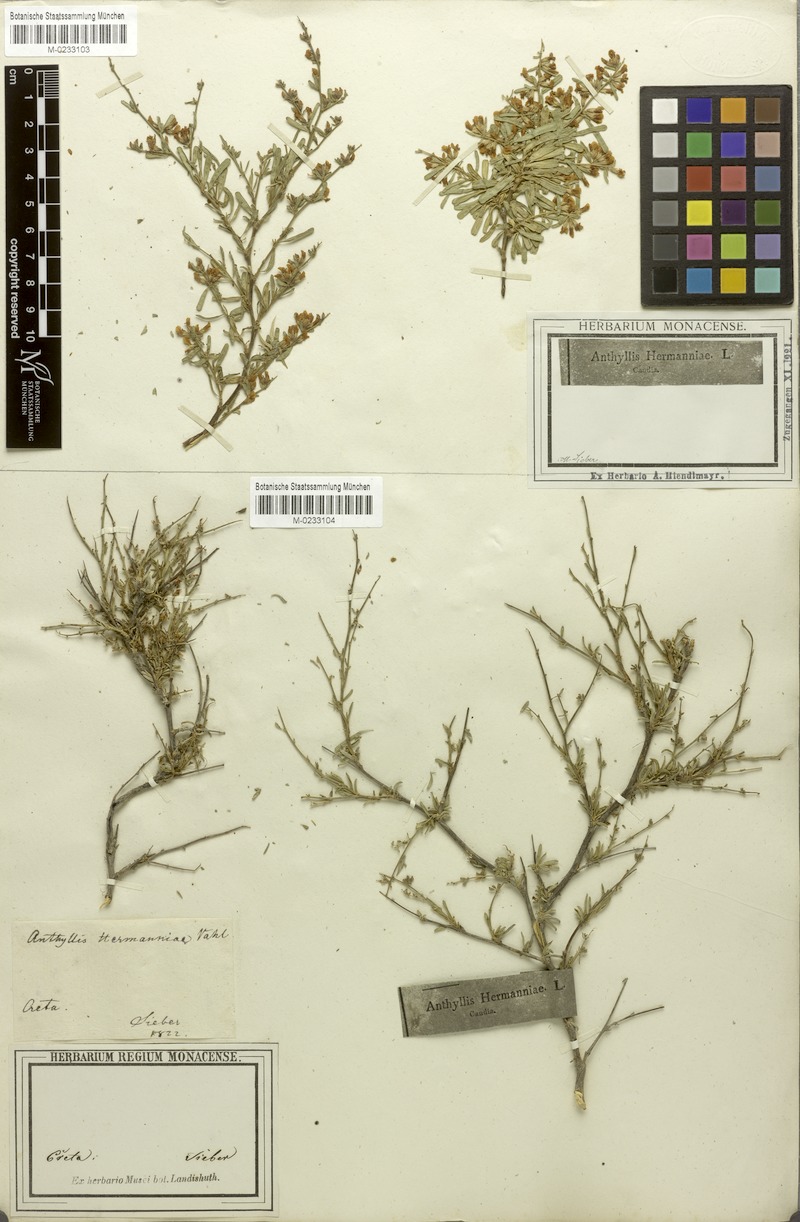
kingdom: Plantae
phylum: Tracheophyta
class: Magnoliopsida
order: Fabales
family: Fabaceae
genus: Anthyllis
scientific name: Anthyllis hermanniae
